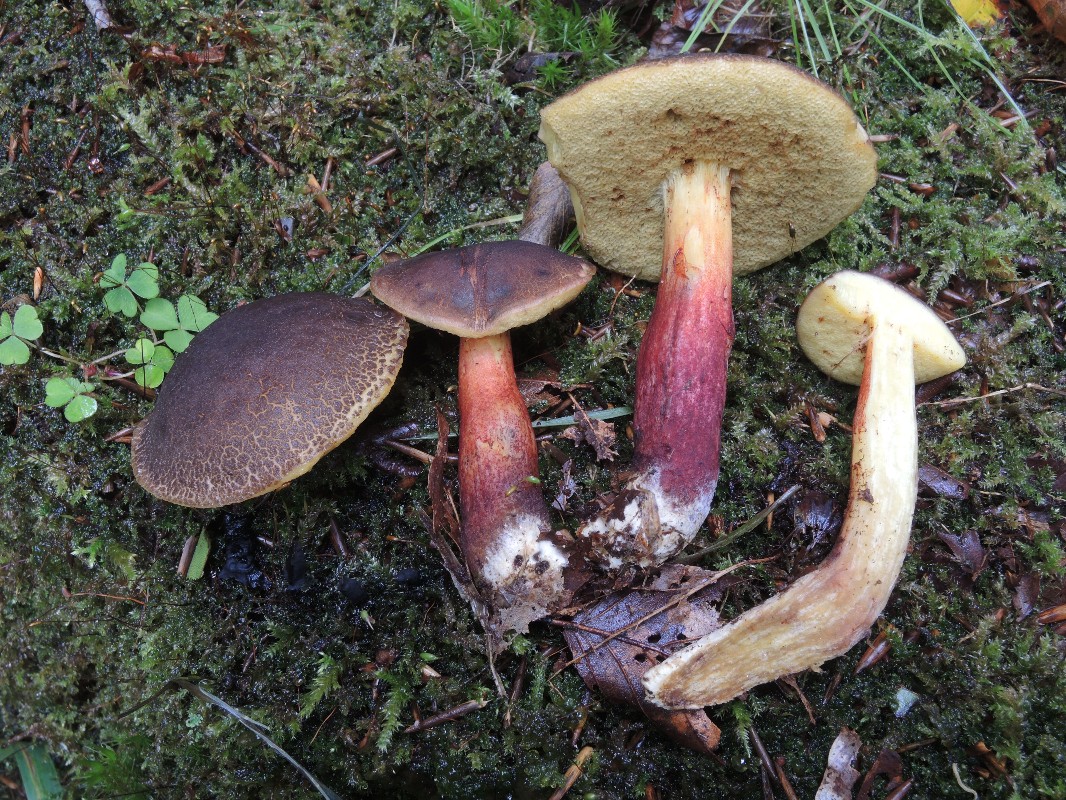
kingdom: Fungi
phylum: Basidiomycota
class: Agaricomycetes
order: Boletales
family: Boletaceae
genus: Xerocomellus
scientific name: Xerocomellus cisalpinus
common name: finsprukken rørhat
